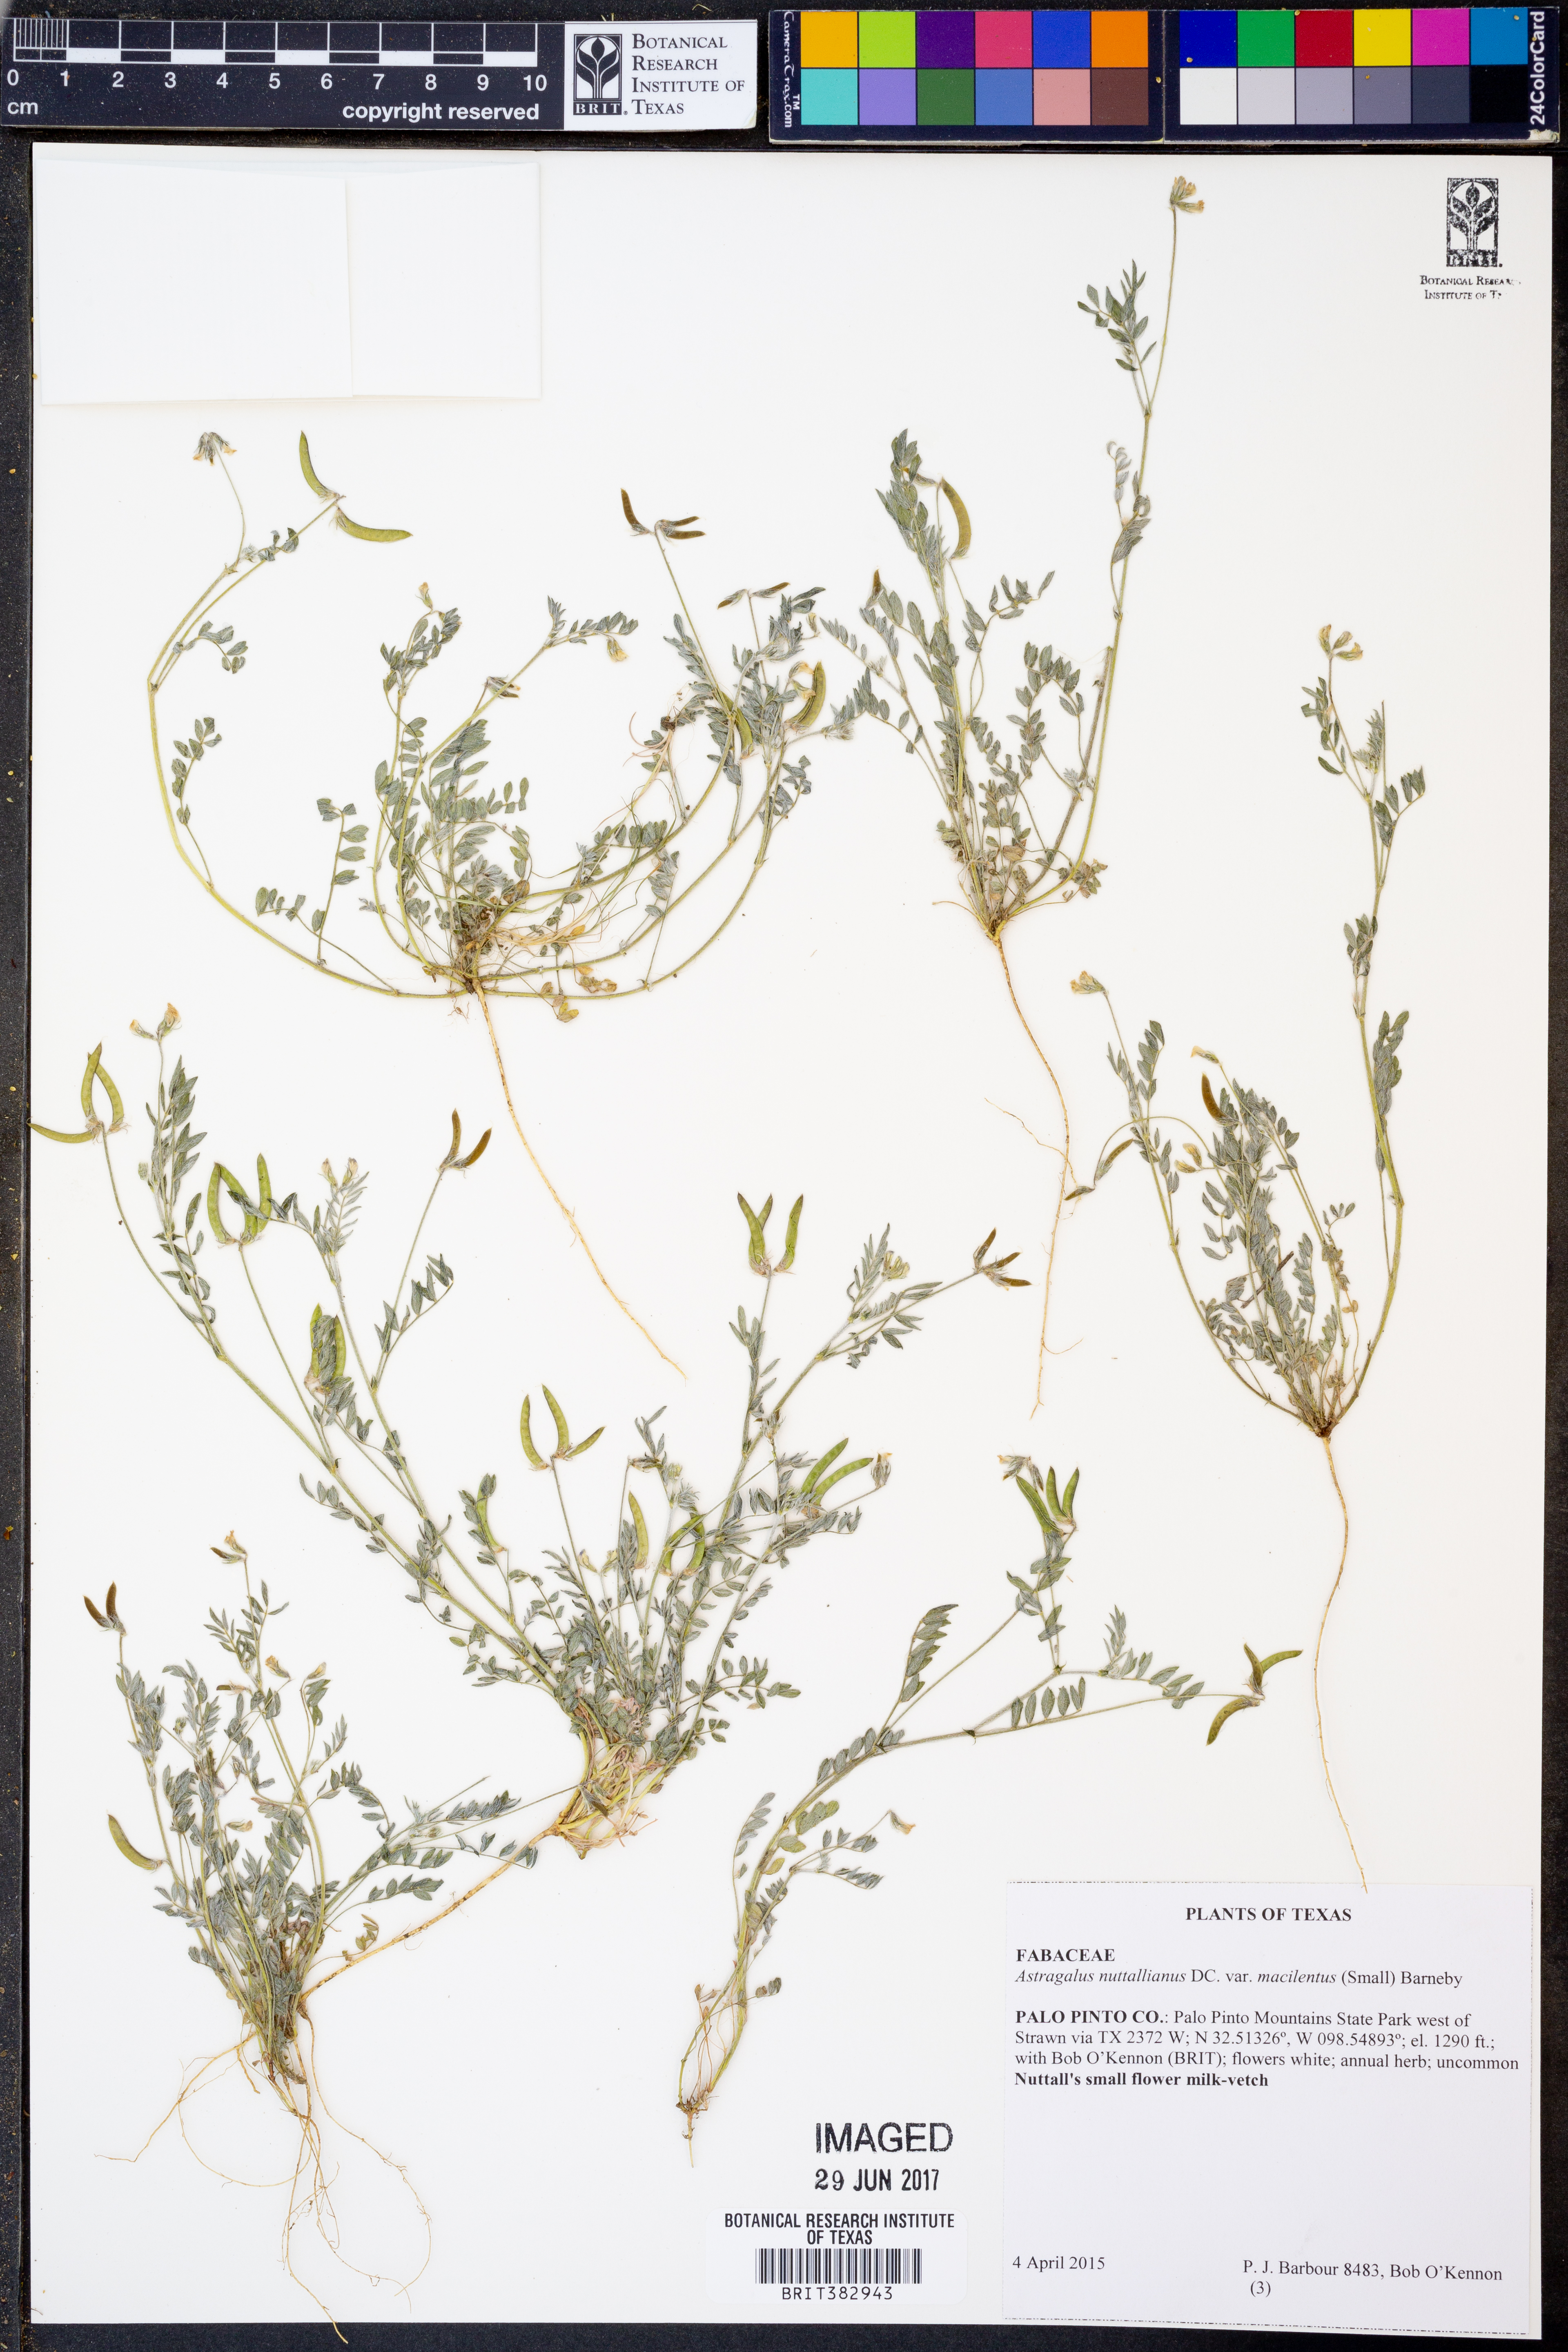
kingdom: Plantae
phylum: Tracheophyta
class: Magnoliopsida
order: Fabales
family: Fabaceae
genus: Astragalus
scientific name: Astragalus nuttallianus
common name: Smallflowered milkvetch
